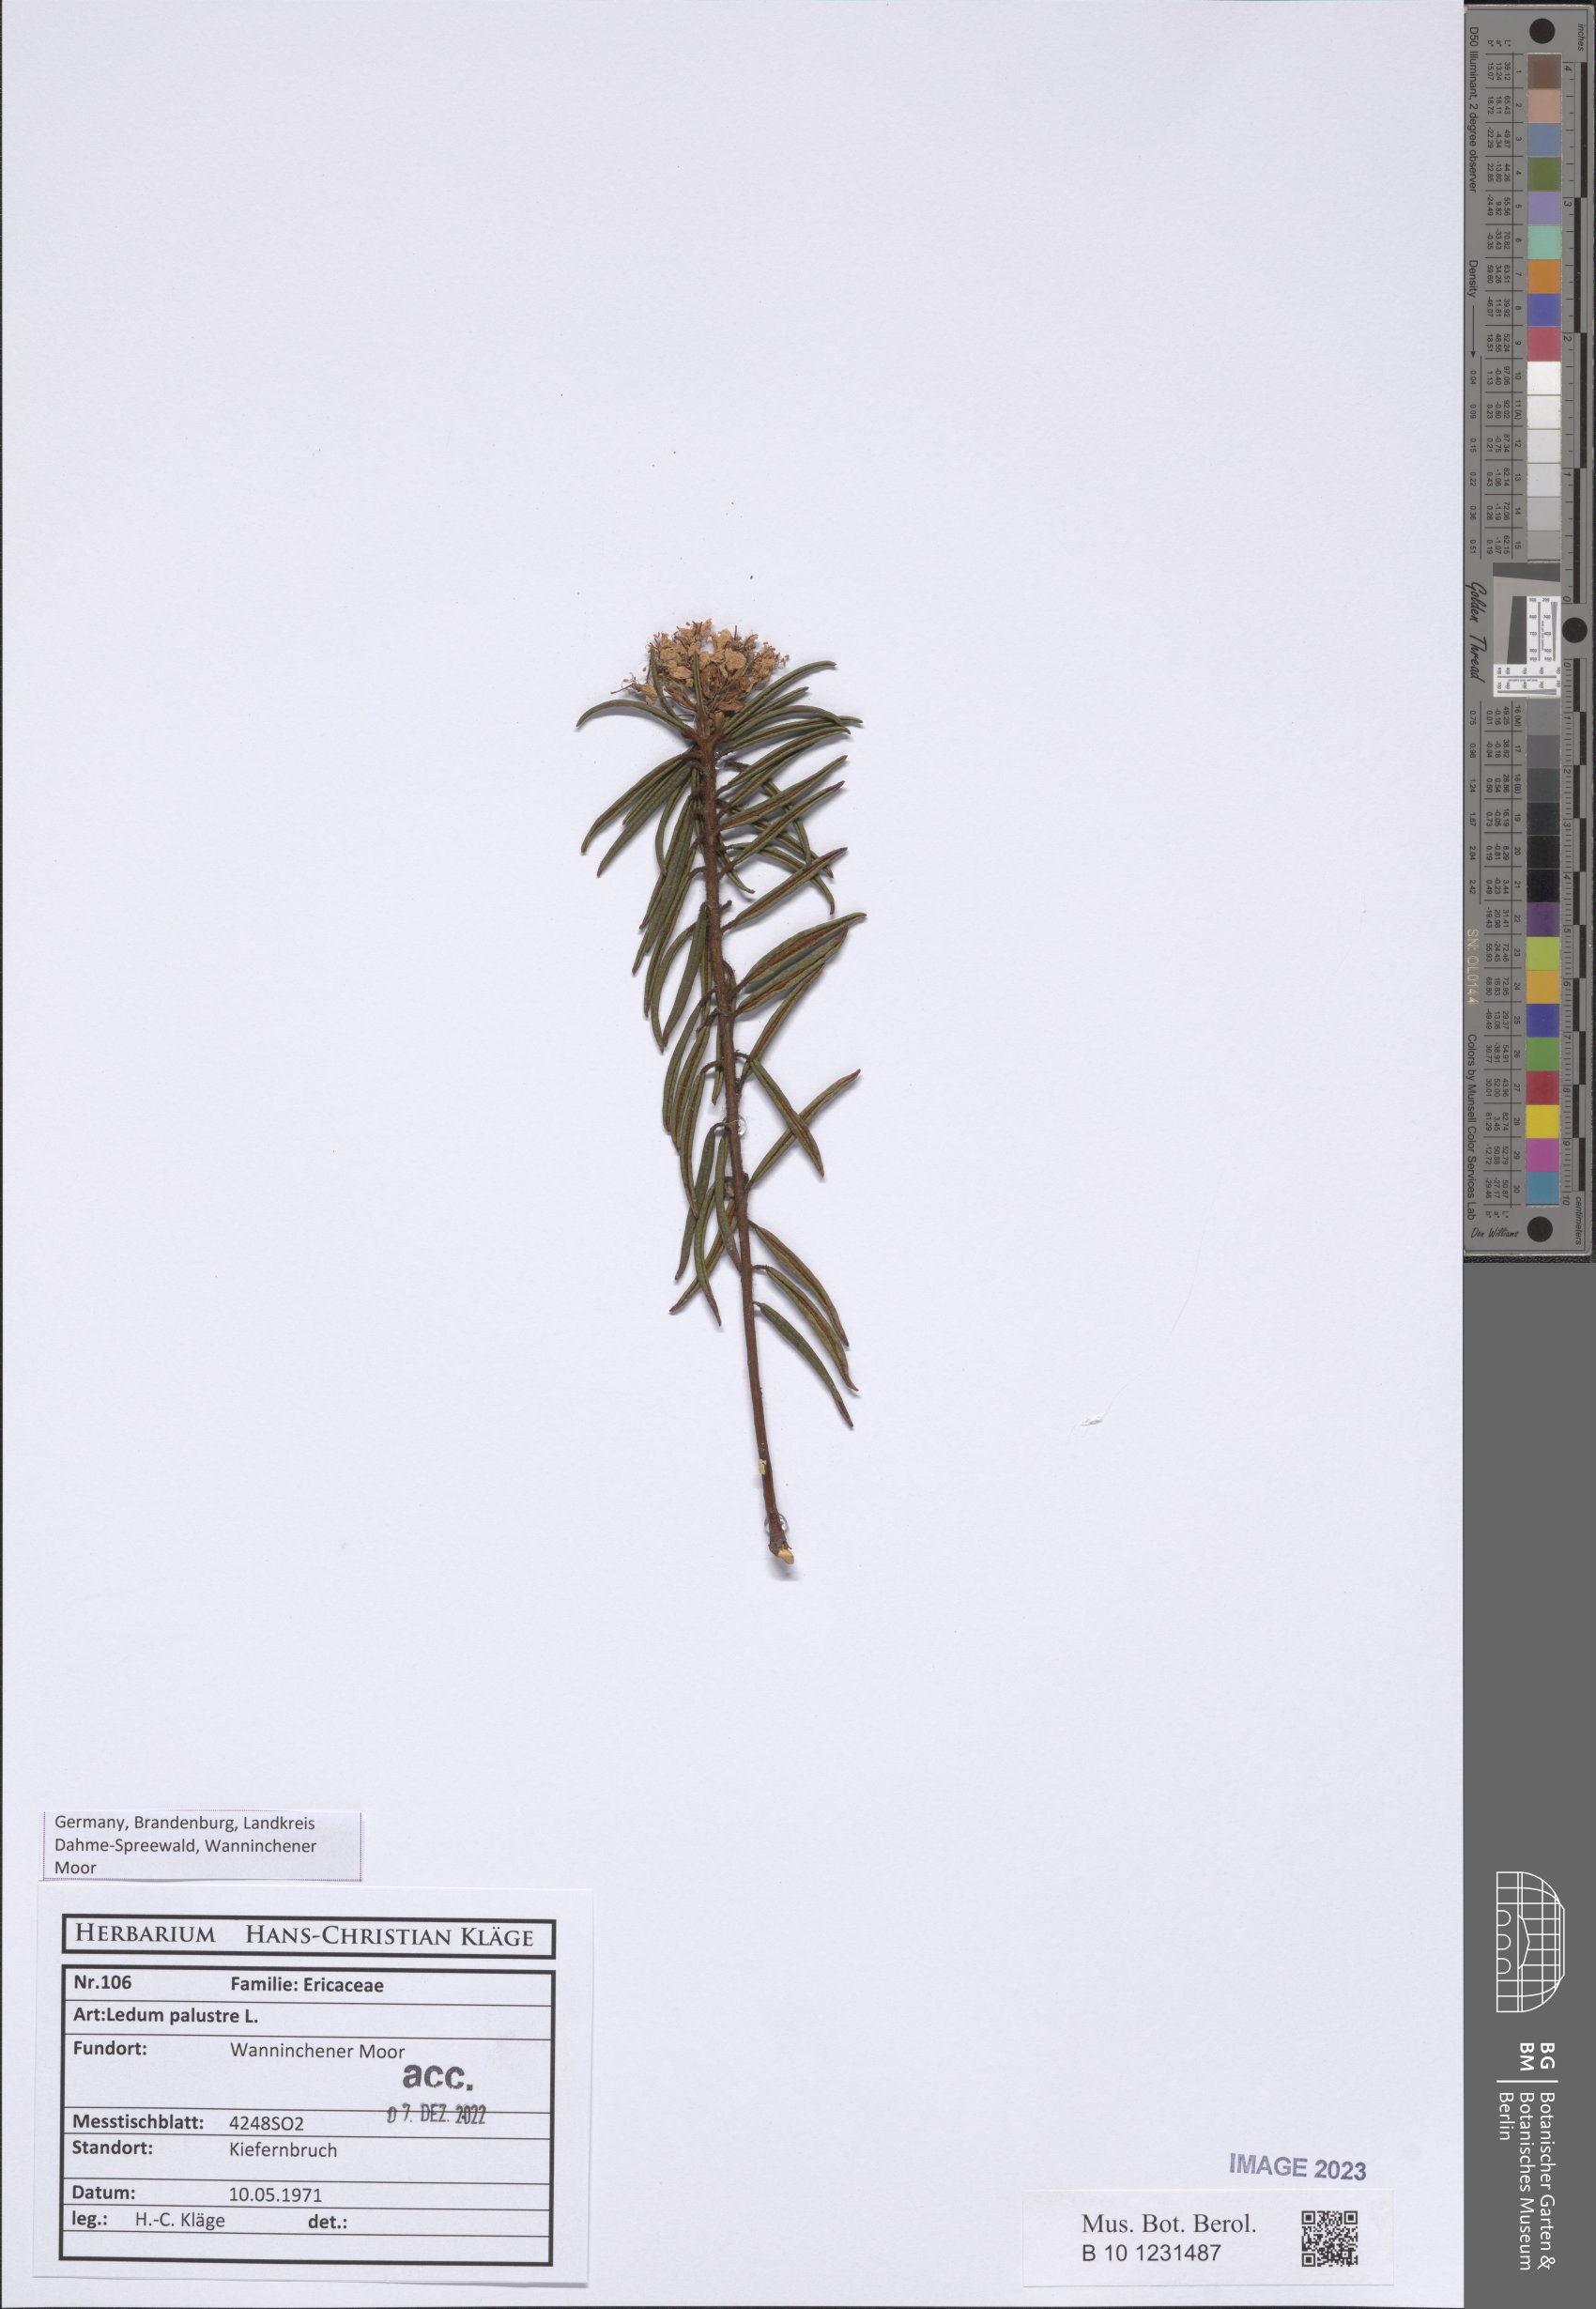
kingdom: Plantae
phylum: Tracheophyta
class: Magnoliopsida
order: Ericales
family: Ericaceae
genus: Rhododendron
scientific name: Rhododendron tomentosum
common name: Marsh labrador tea
